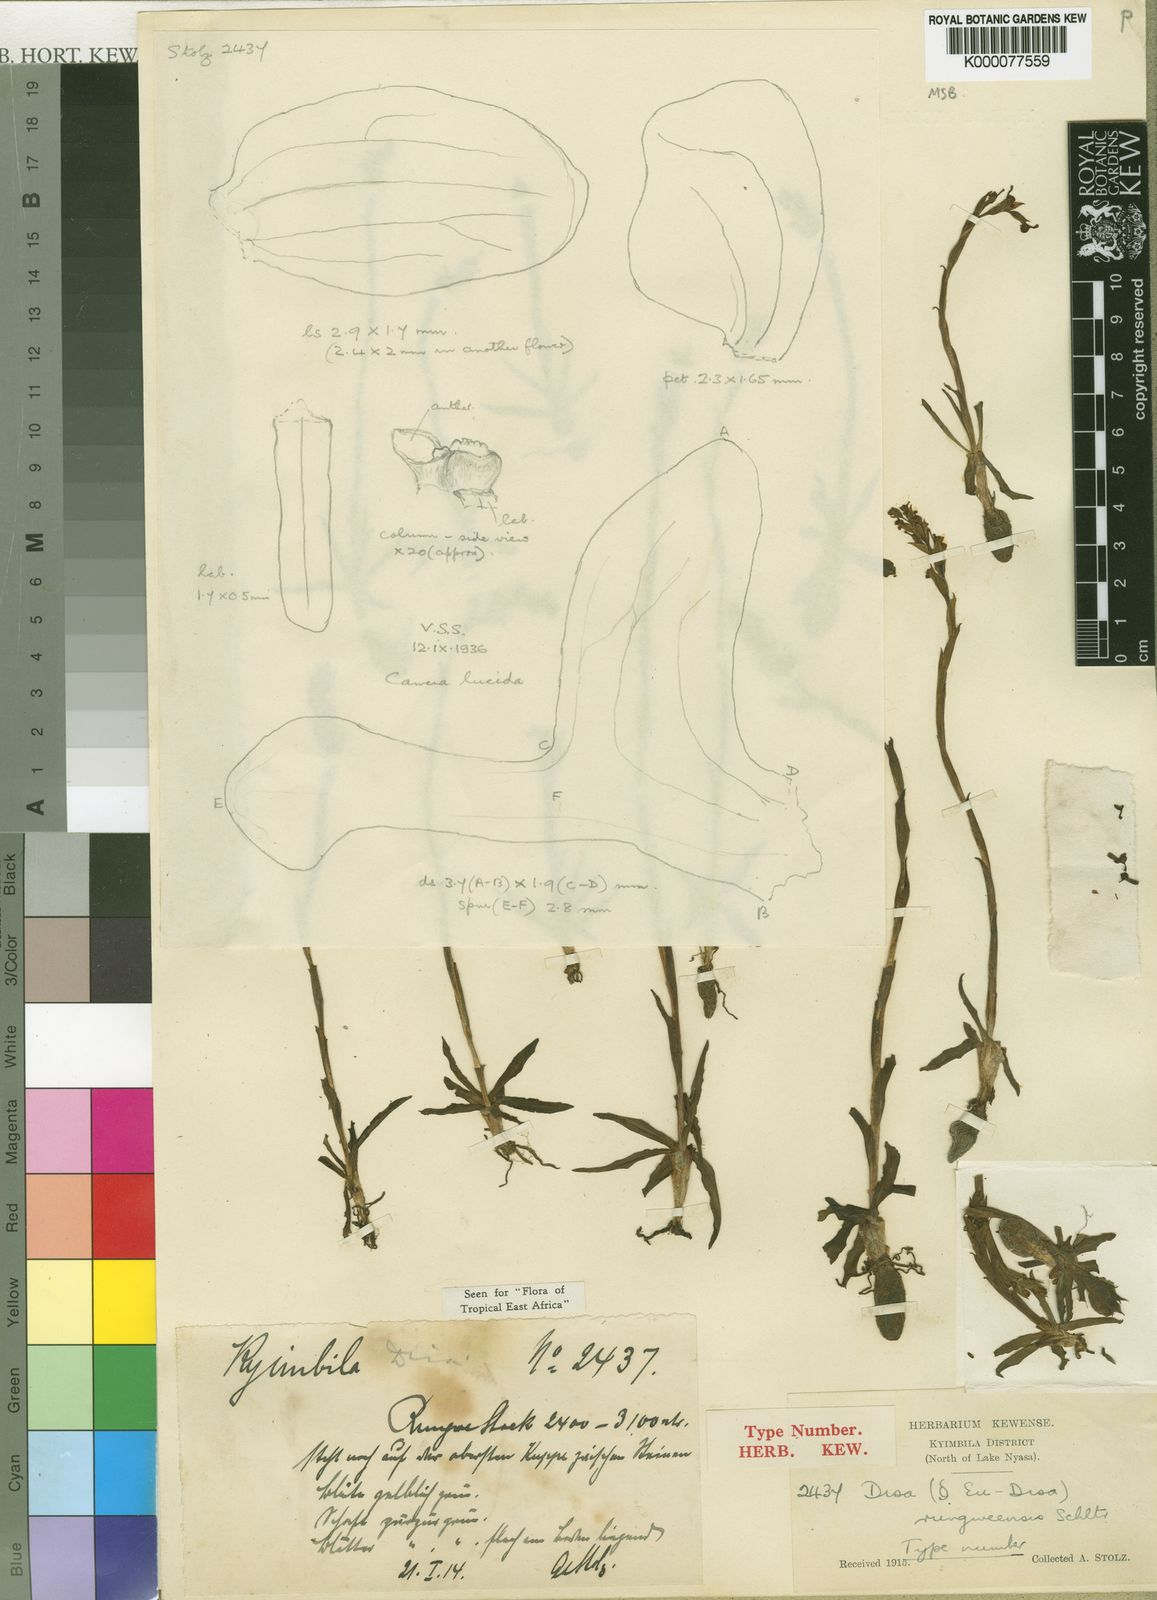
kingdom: Plantae
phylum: Tracheophyta
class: Liliopsida
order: Asparagales
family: Orchidaceae
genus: Disa
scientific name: Disa rungweensis
